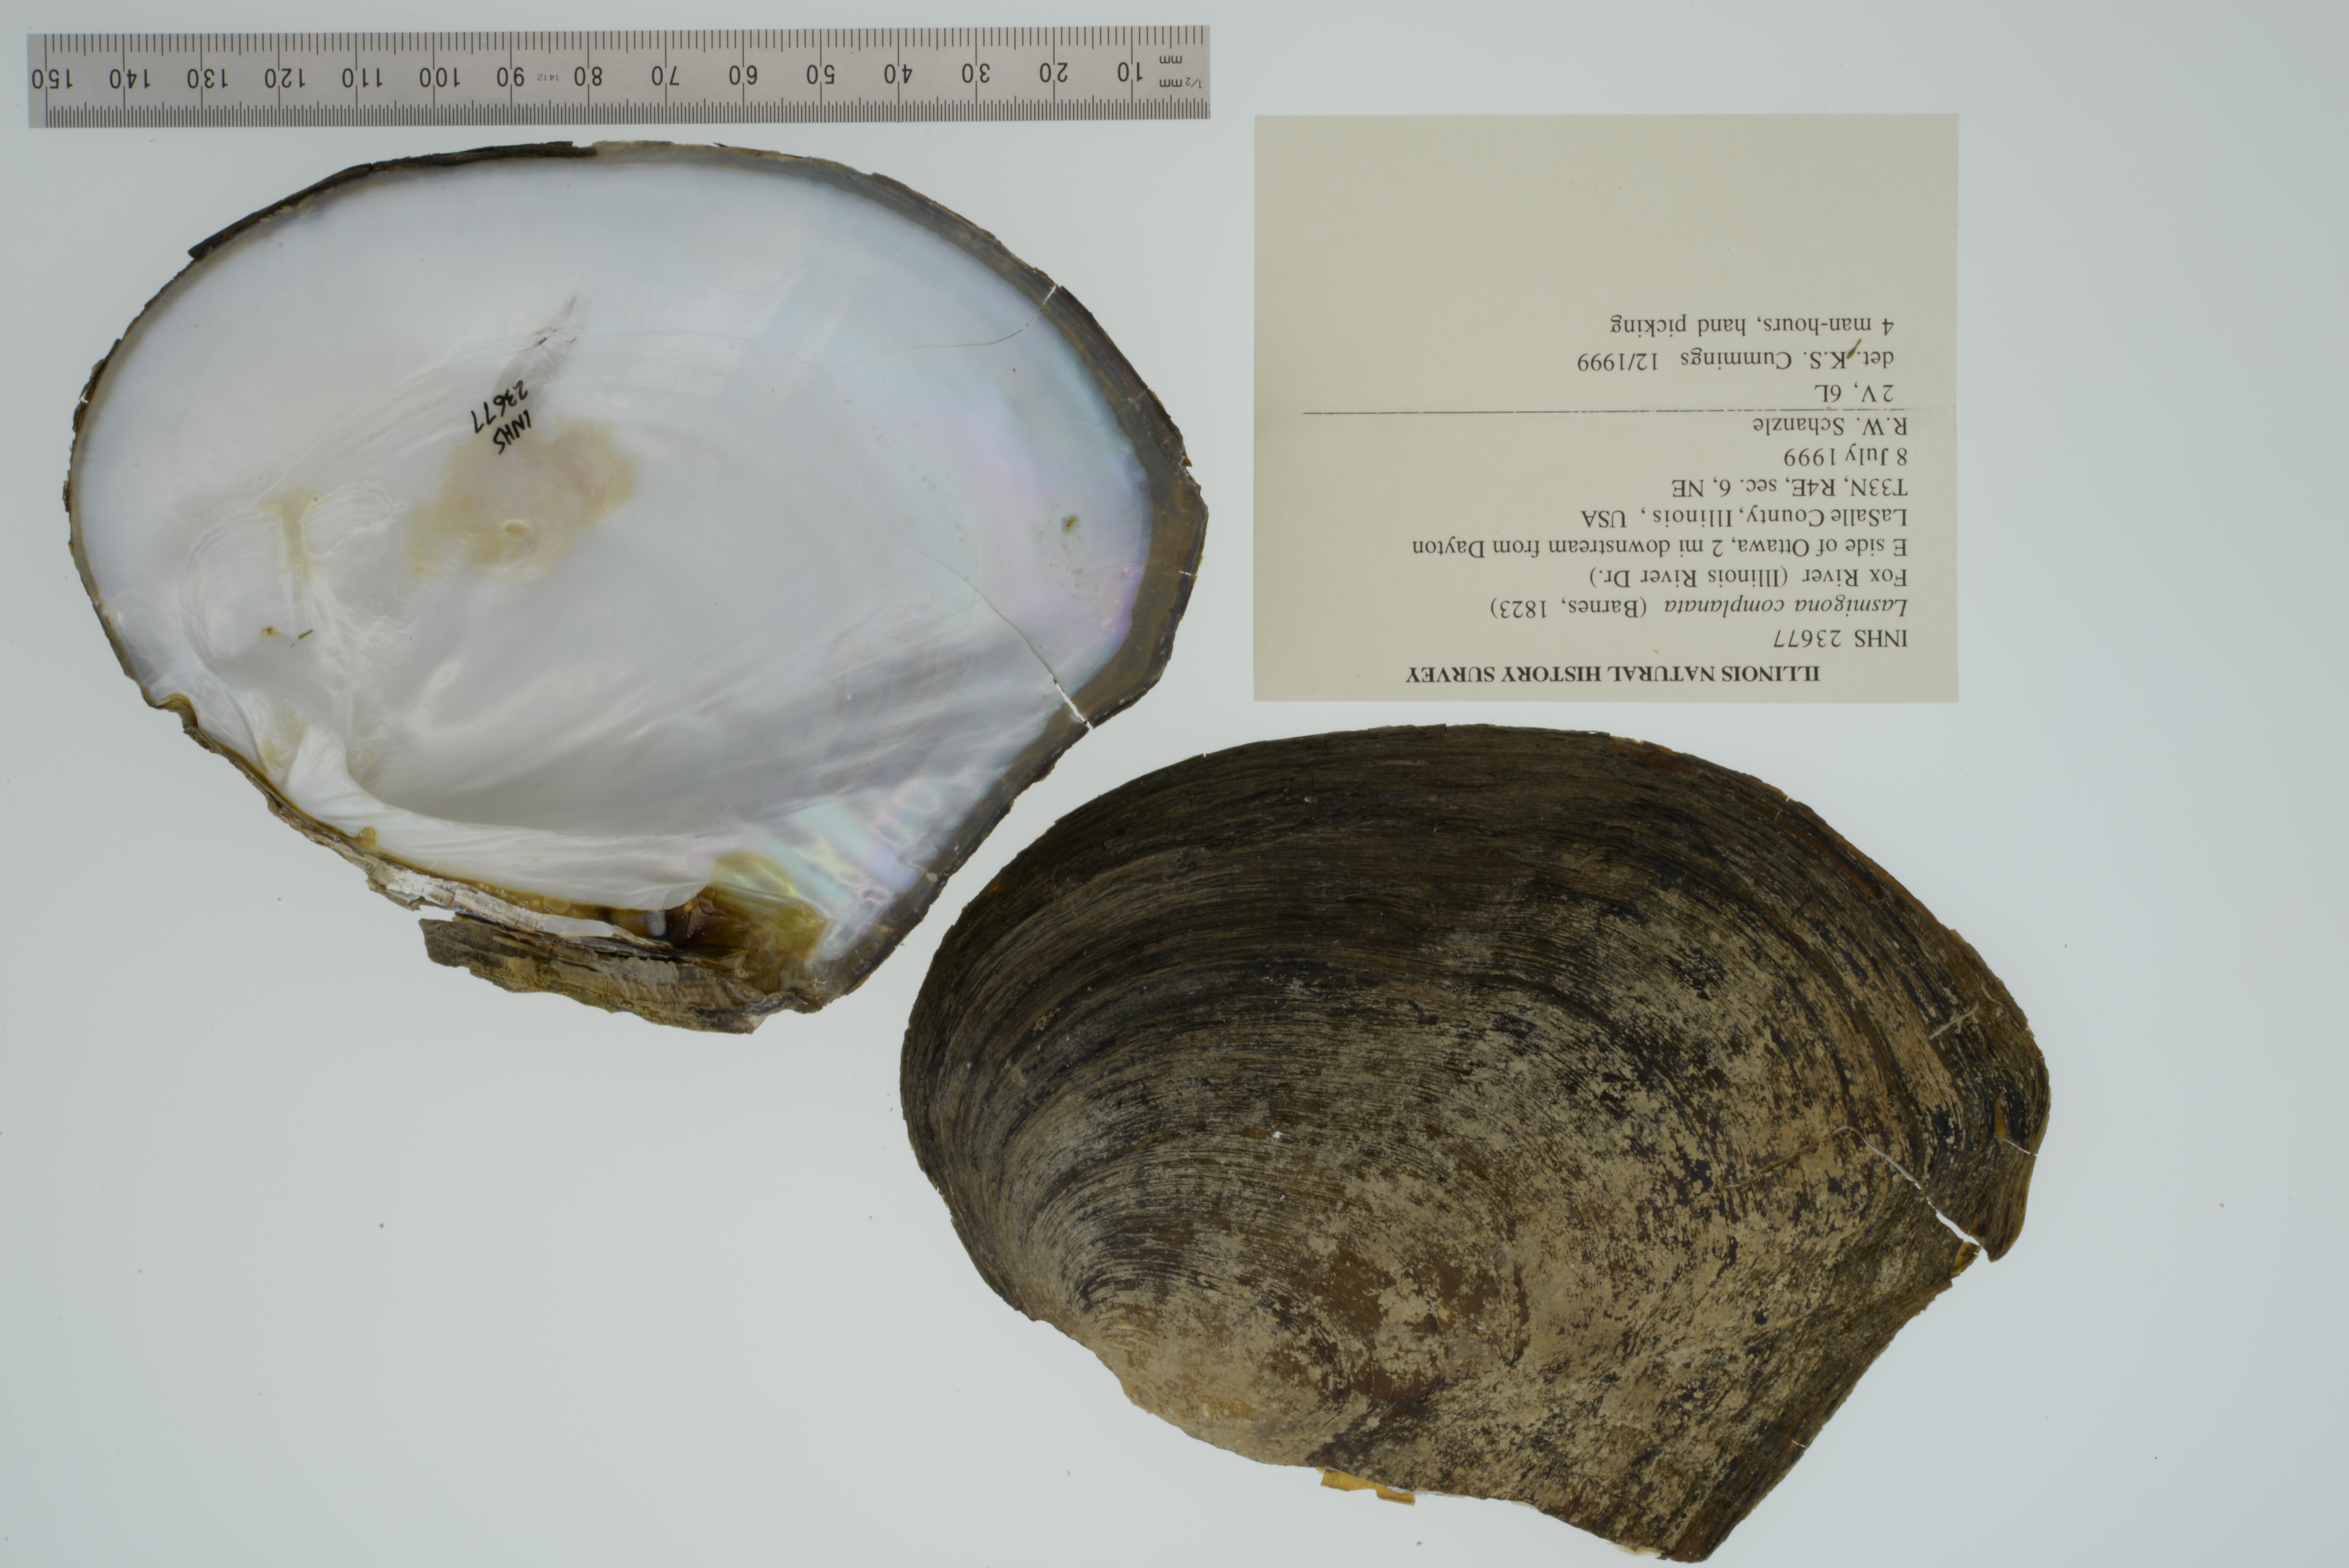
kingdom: Animalia
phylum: Mollusca
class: Bivalvia
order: Unionida
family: Unionidae
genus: Lasmigona
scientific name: Lasmigona complanata
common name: White heelsplitter
